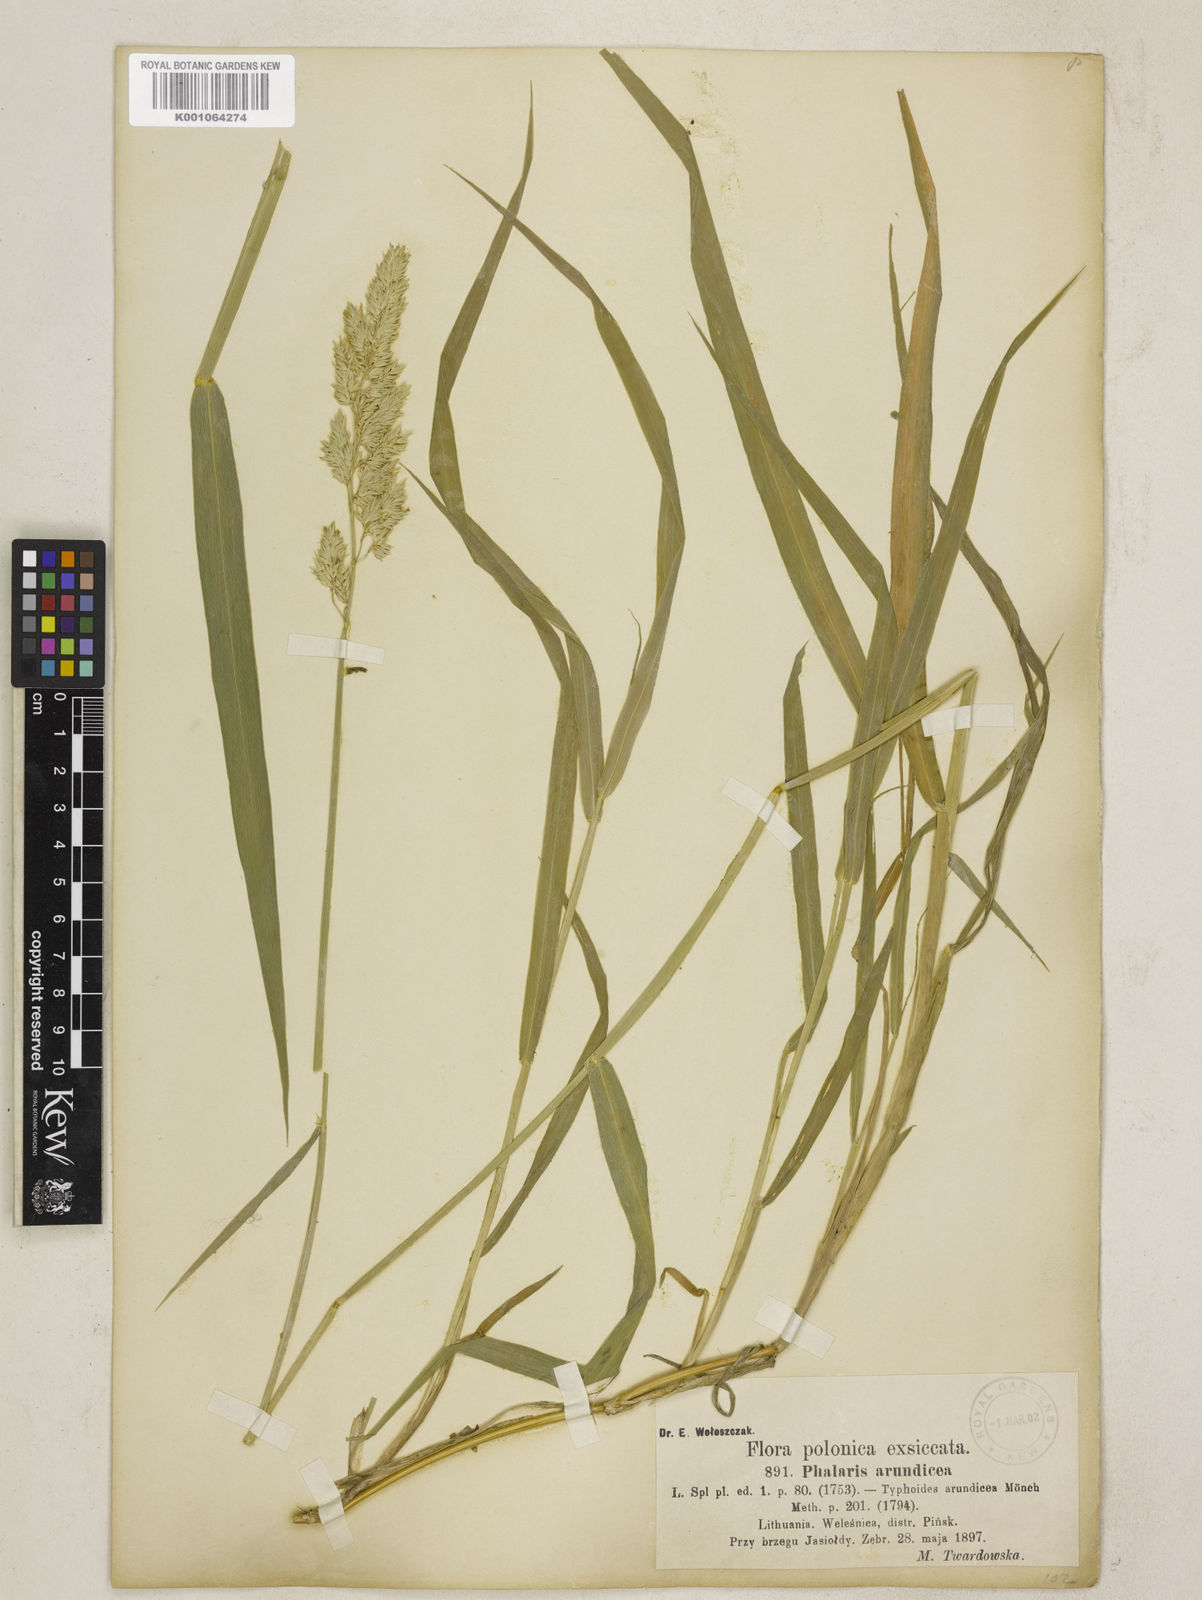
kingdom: Plantae
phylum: Tracheophyta
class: Liliopsida
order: Poales
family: Poaceae
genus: Phalaris
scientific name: Phalaris arundinacea
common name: Reed canary-grass
